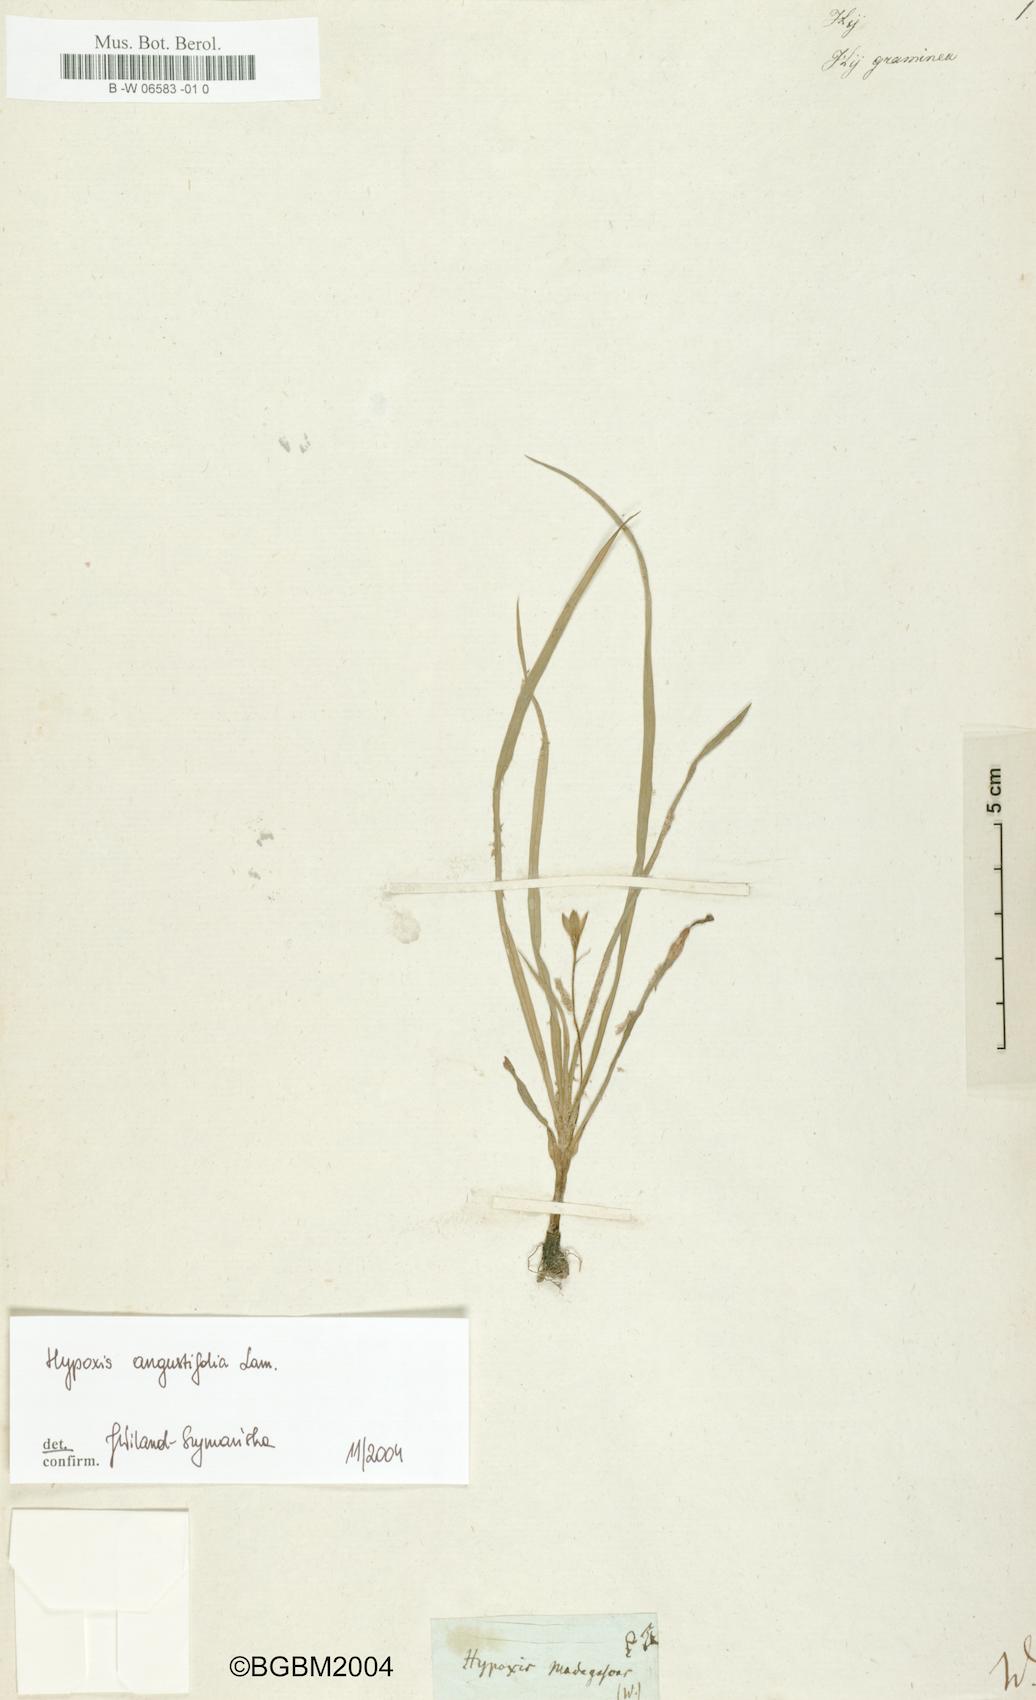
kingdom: Plantae
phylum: Tracheophyta
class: Liliopsida
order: Asparagales
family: Hypoxidaceae
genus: Hypoxis
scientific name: Hypoxis
